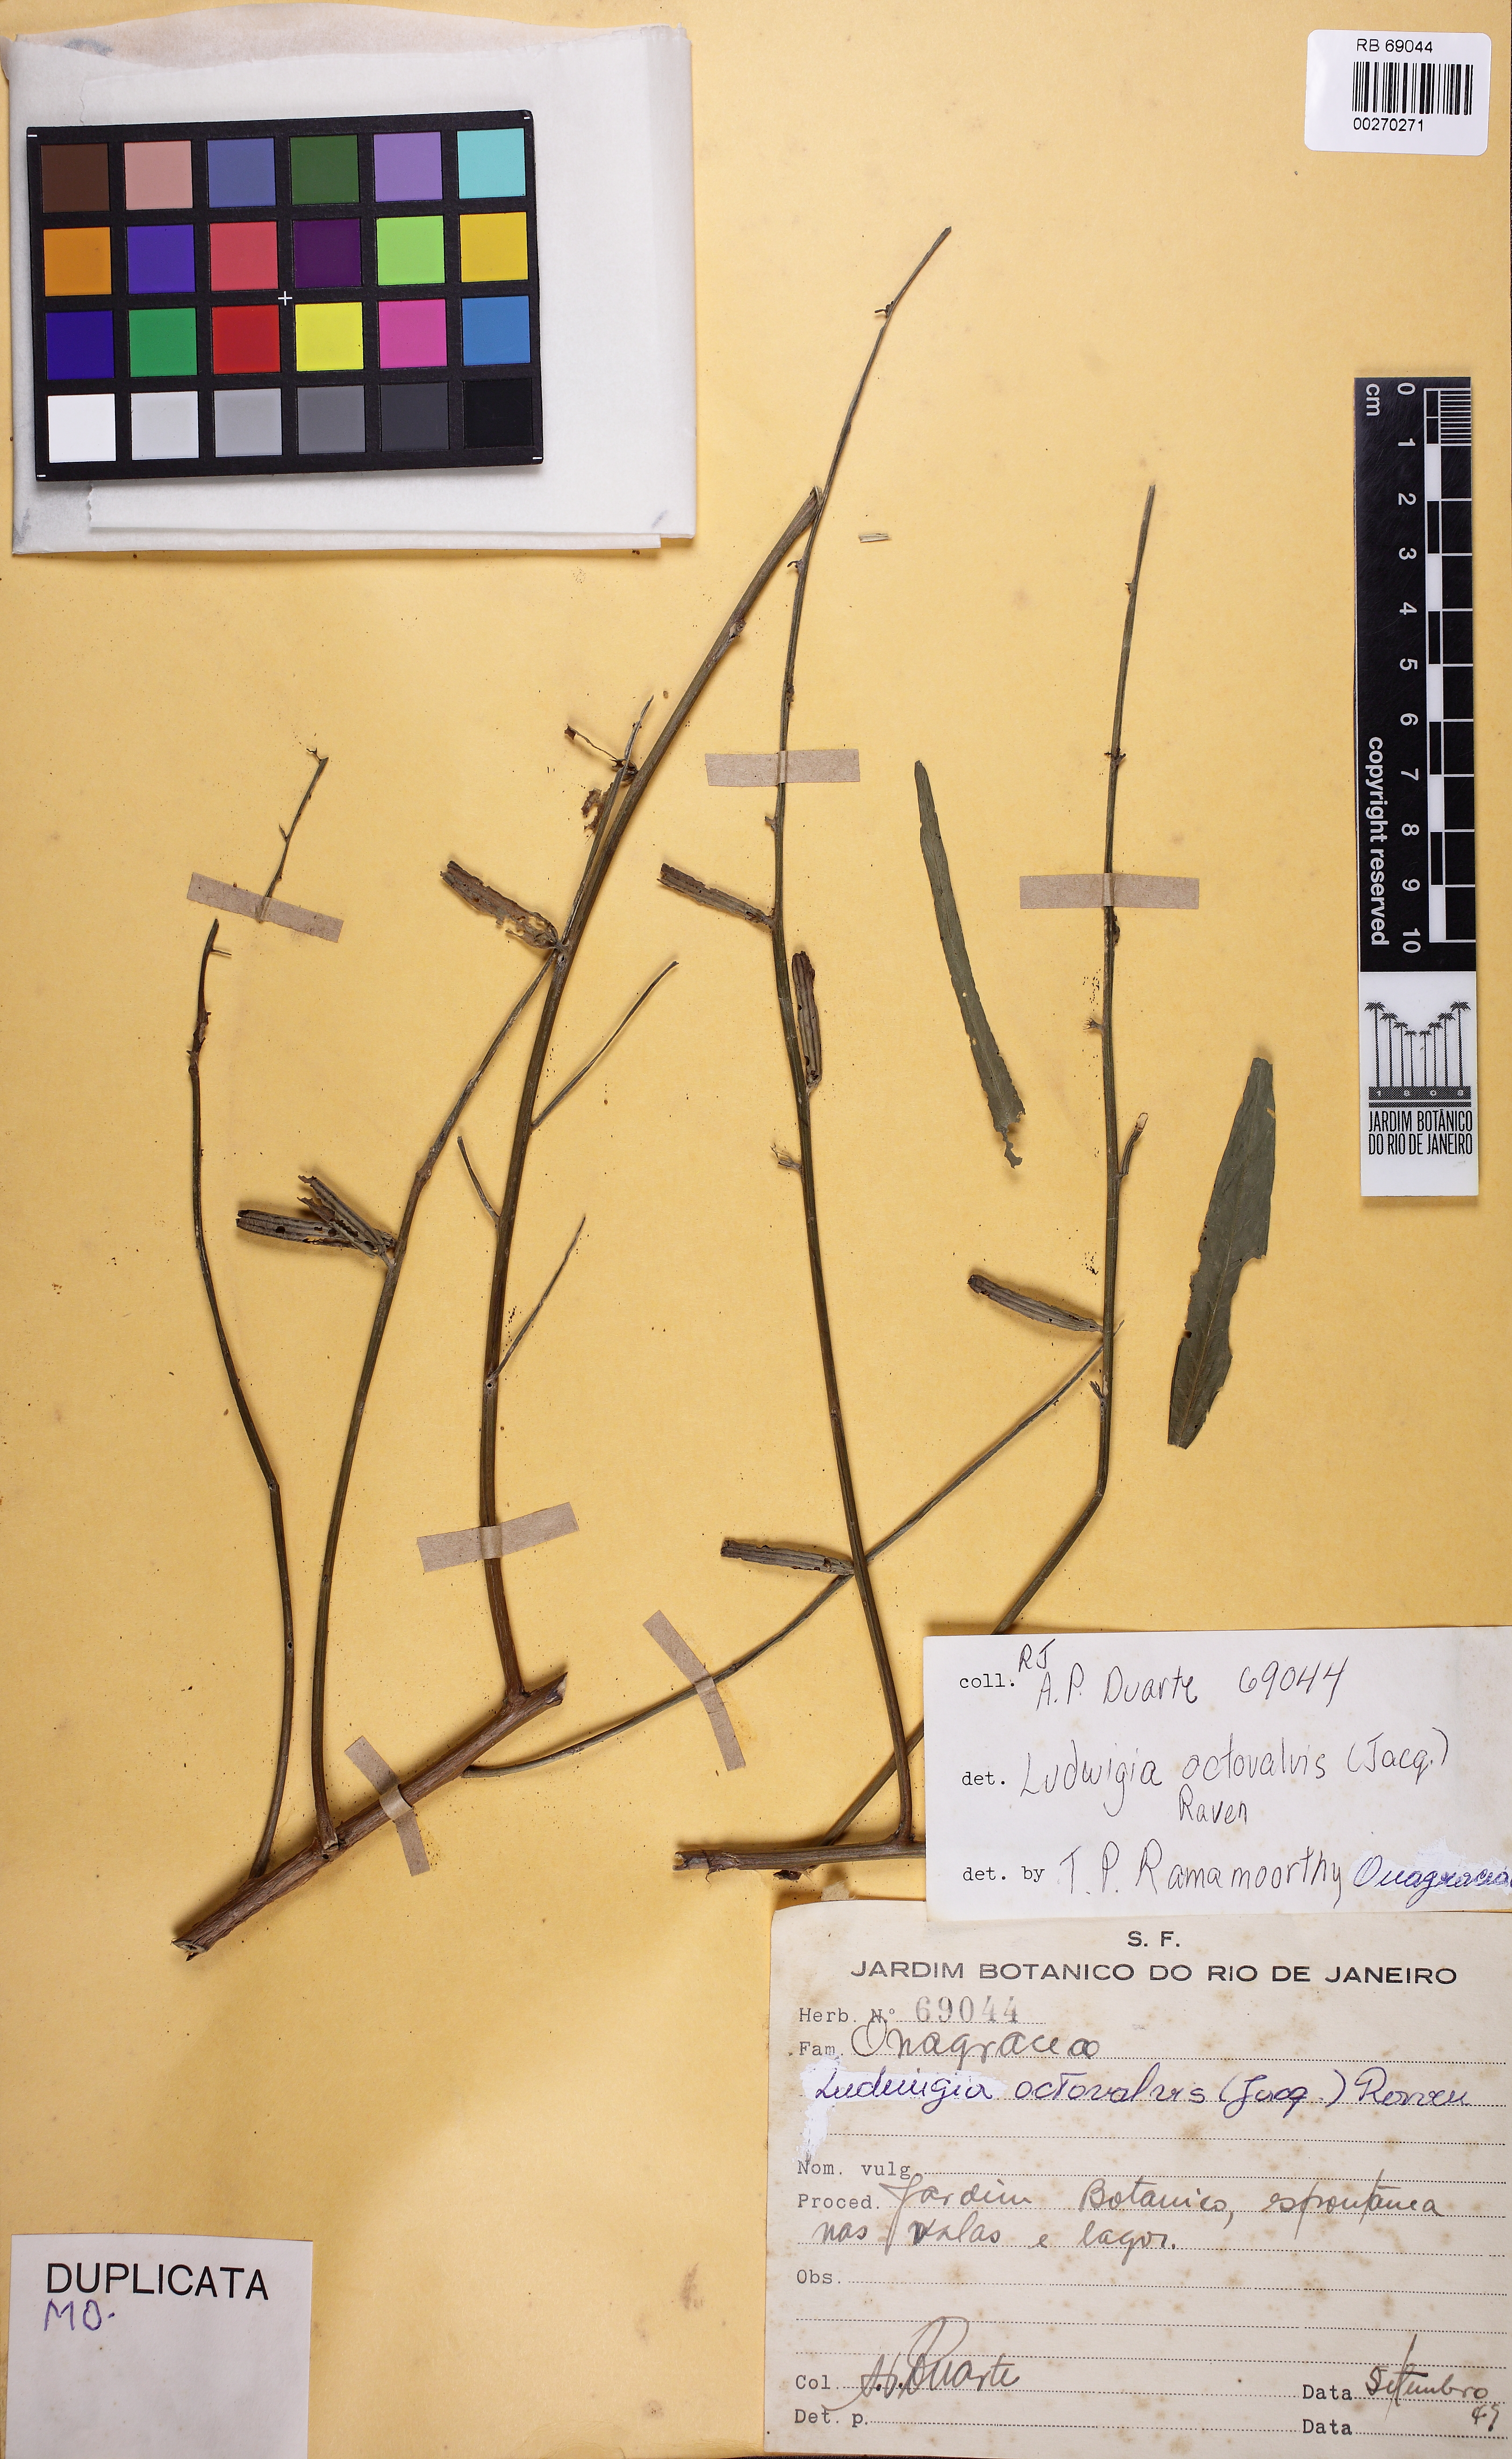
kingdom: Plantae
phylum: Tracheophyta
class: Magnoliopsida
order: Myrtales
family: Onagraceae
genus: Ludwigia
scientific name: Ludwigia octovalvis
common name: Water-primrose
